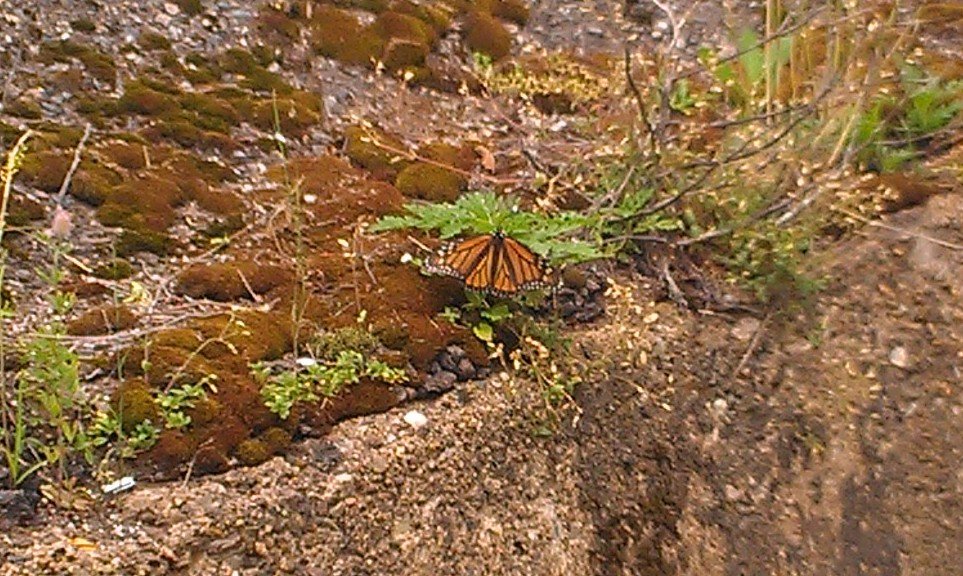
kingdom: Animalia
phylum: Arthropoda
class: Insecta
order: Lepidoptera
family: Nymphalidae
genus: Danaus
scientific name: Danaus plexippus
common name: Monarch
